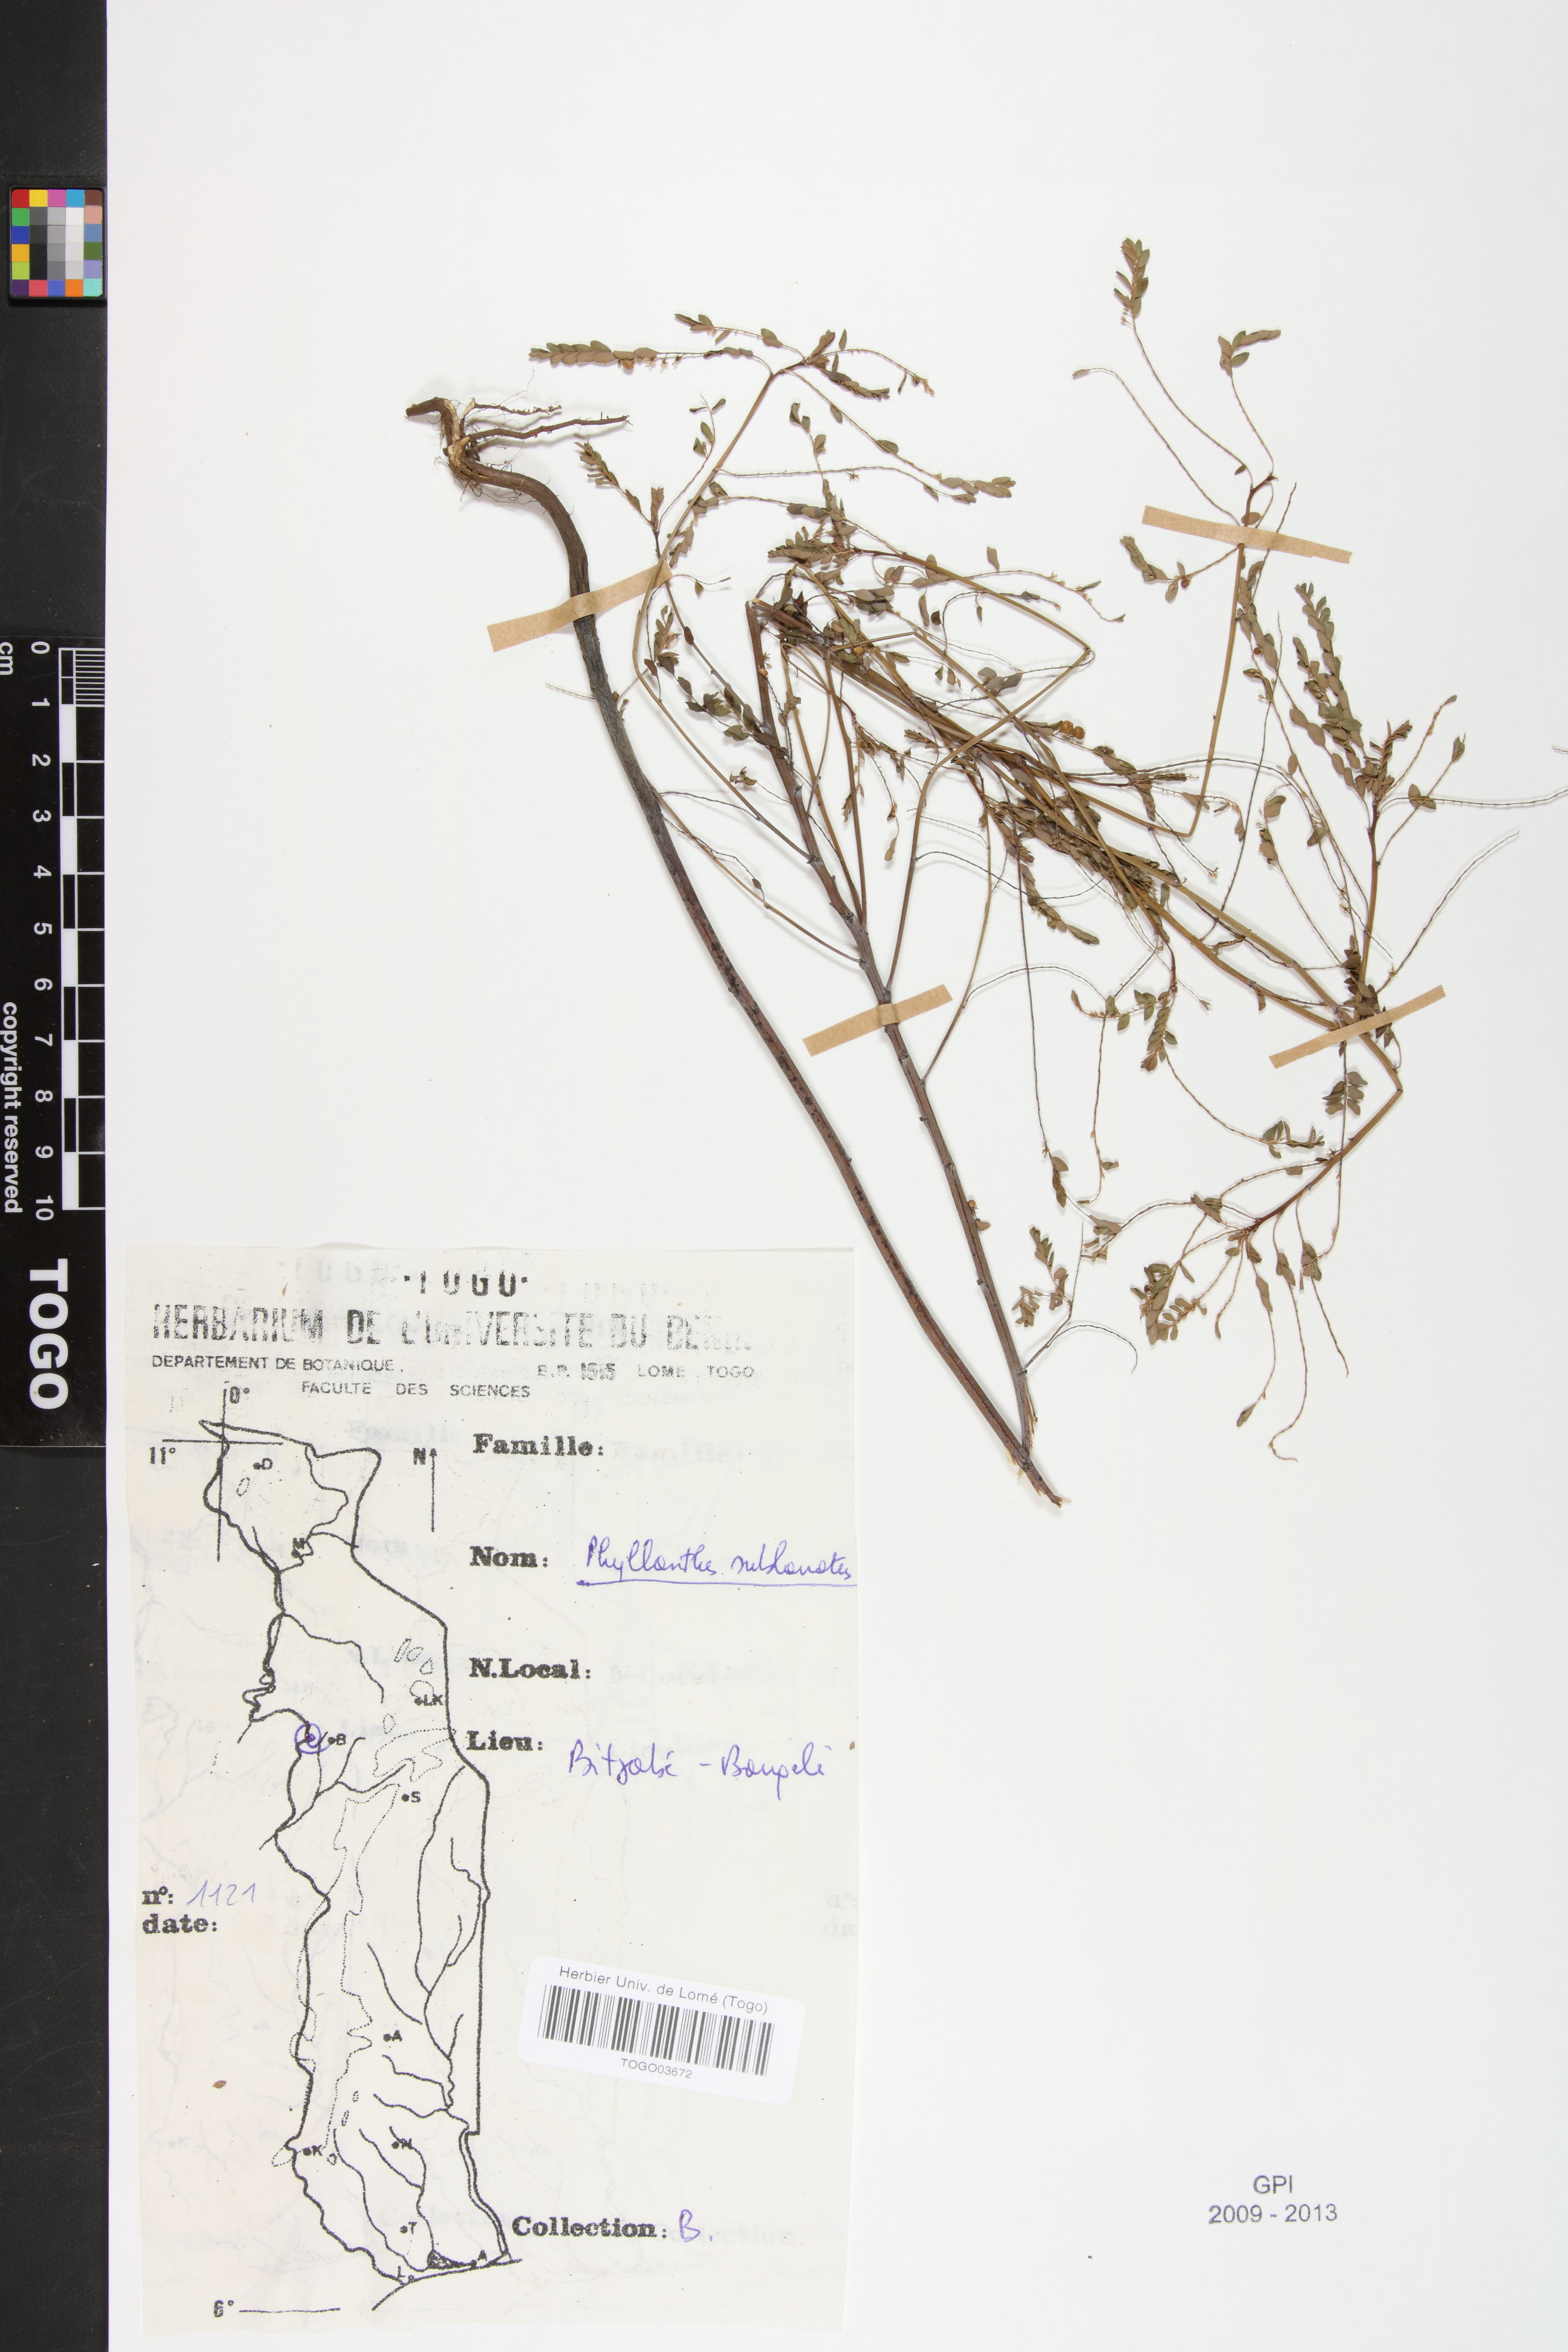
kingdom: Plantae
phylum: Tracheophyta
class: Magnoliopsida
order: Malpighiales
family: Phyllanthaceae
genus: Phyllanthus
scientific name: Phyllanthus sublanatus
